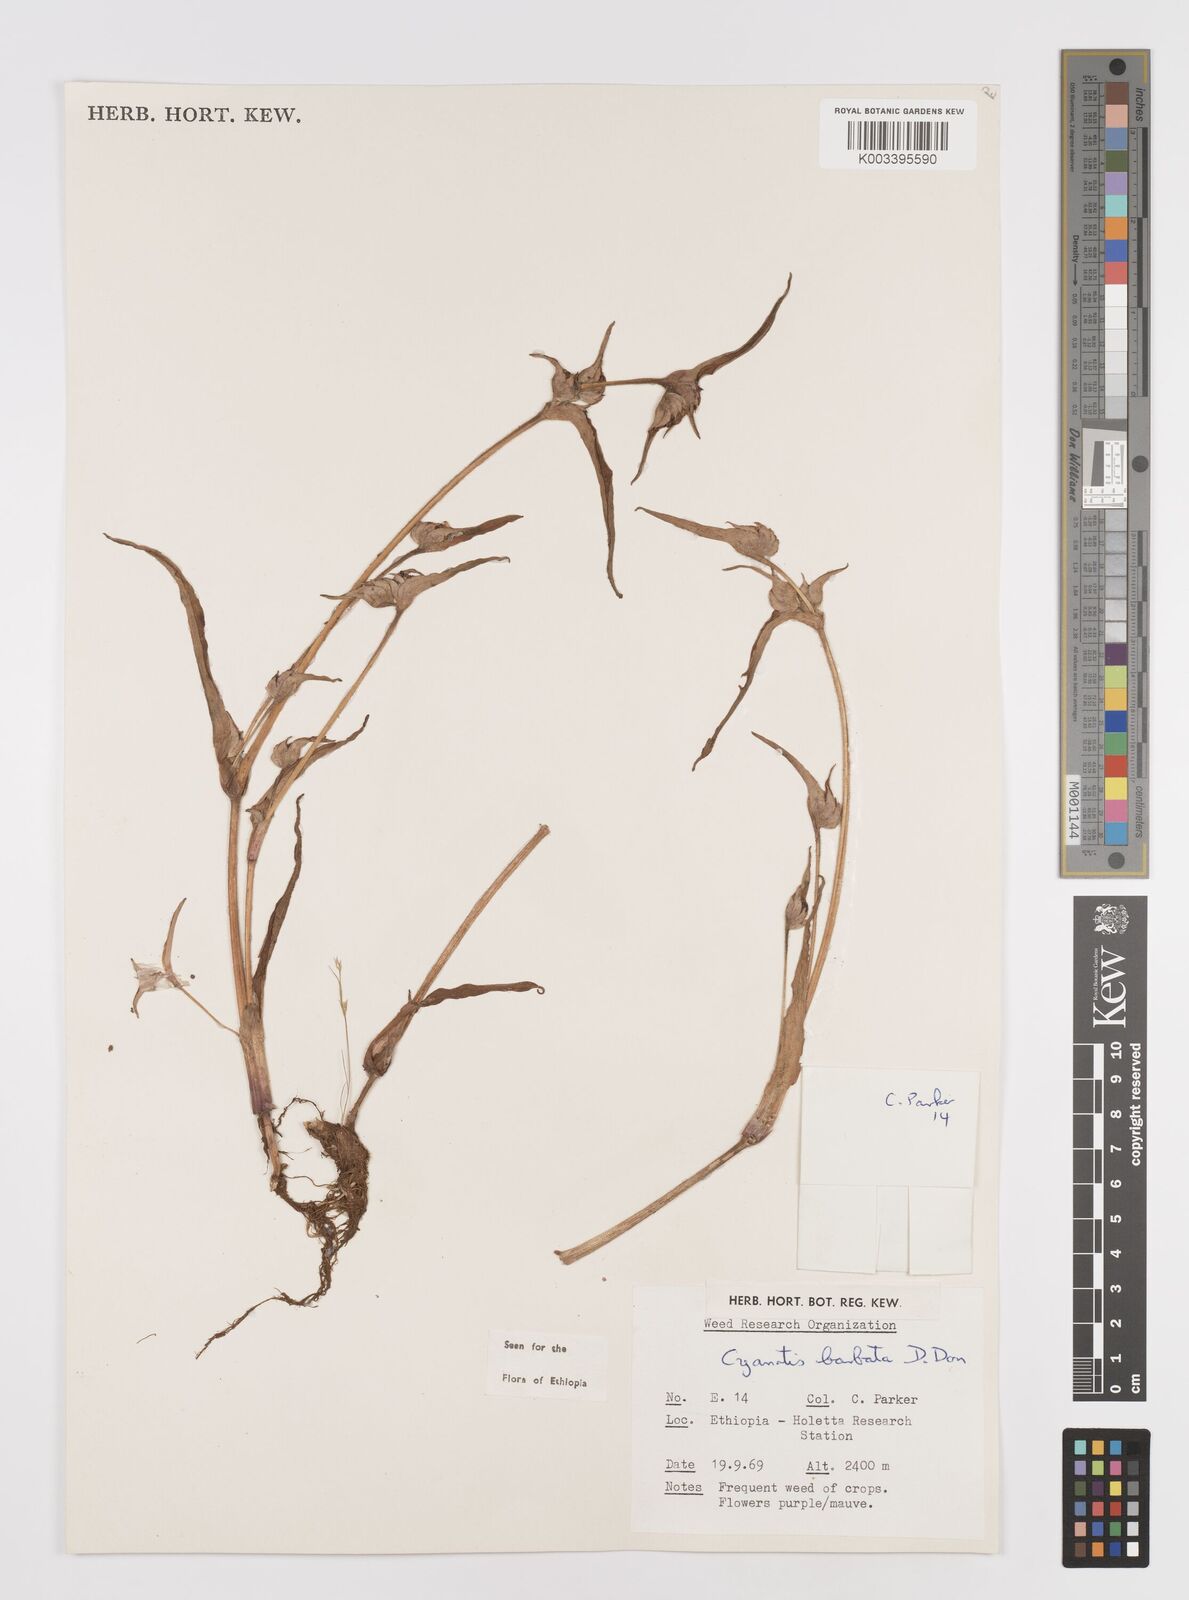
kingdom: Plantae
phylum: Tracheophyta
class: Liliopsida
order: Commelinales
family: Commelinaceae
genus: Cyanotis
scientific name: Cyanotis vaga
